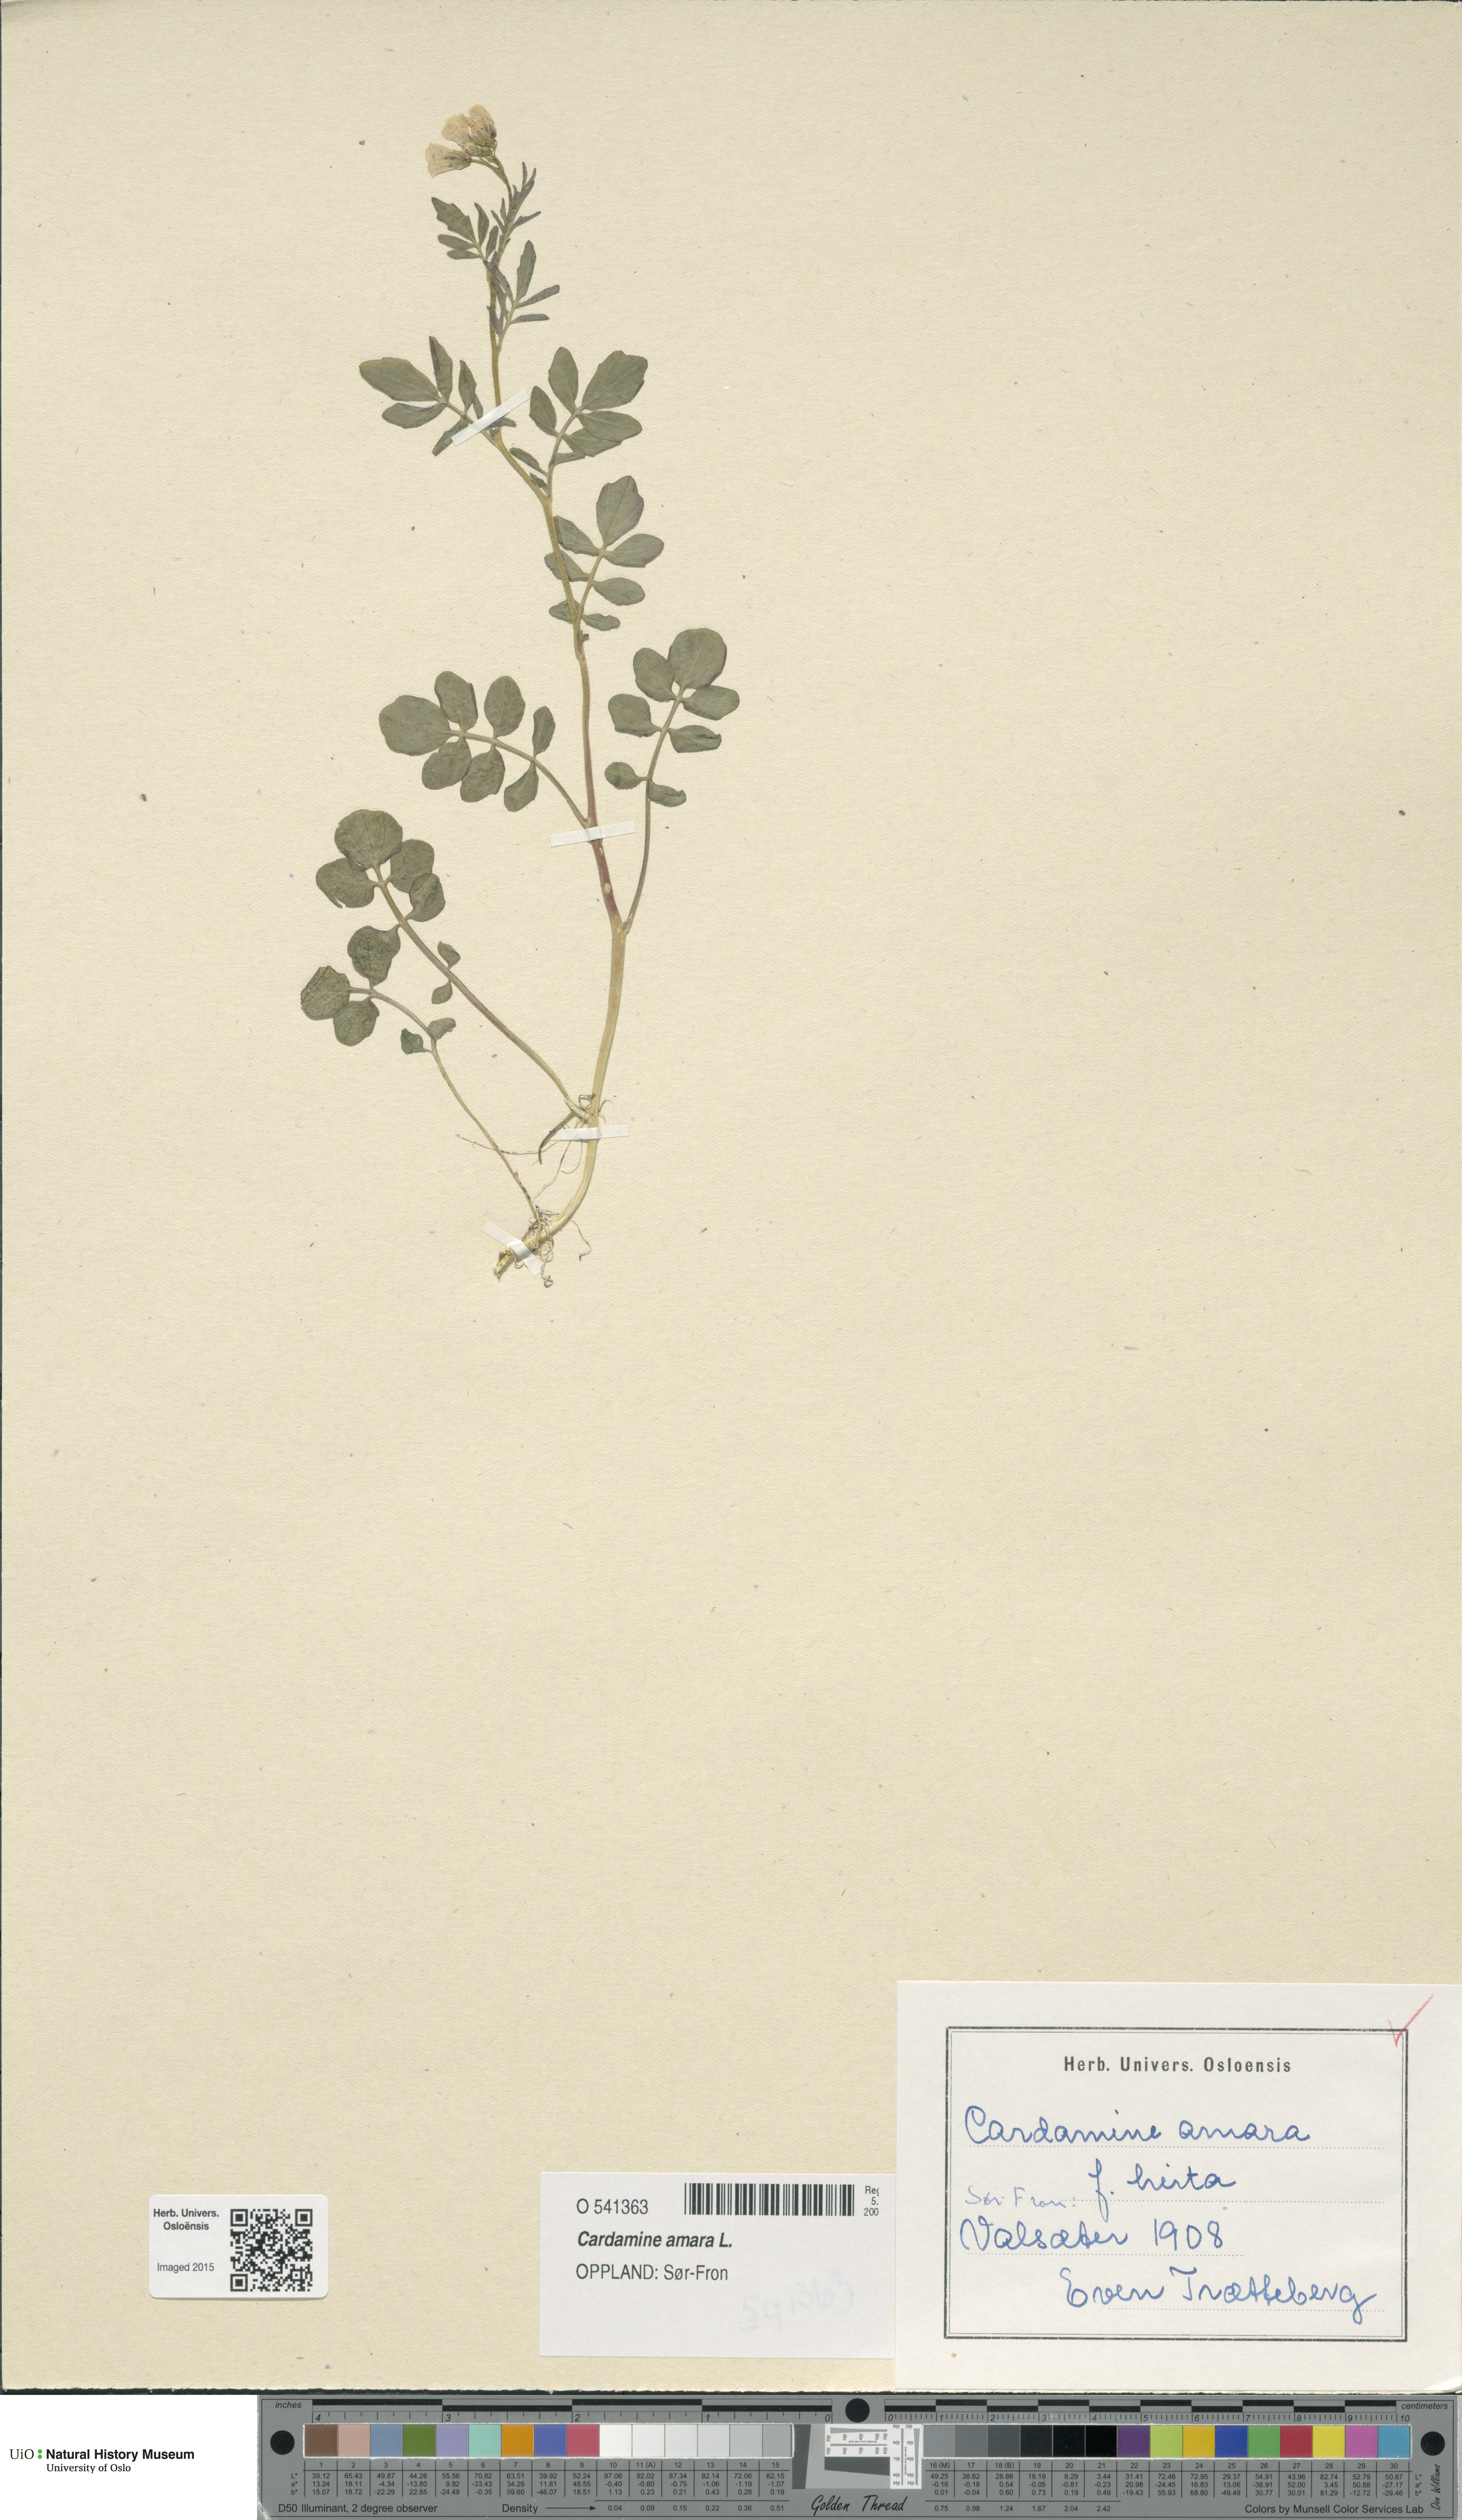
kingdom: Plantae
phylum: Tracheophyta
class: Magnoliopsida
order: Brassicales
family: Brassicaceae
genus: Cardamine
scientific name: Cardamine amara
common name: Large bitter-cress
